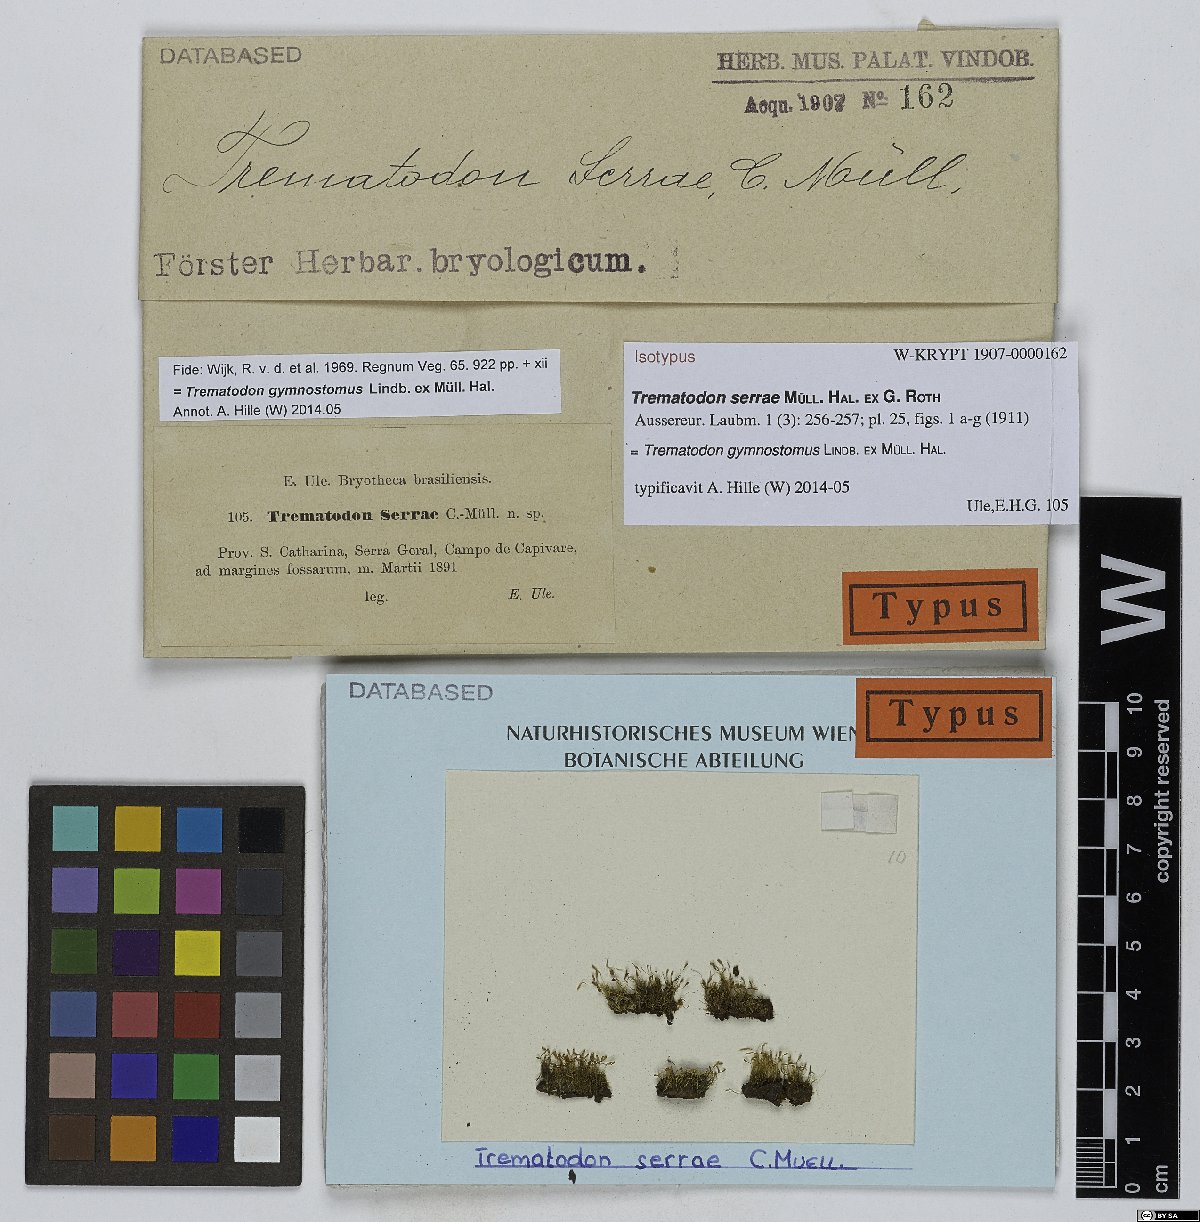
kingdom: Plantae
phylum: Bryophyta
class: Bryopsida
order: Dicranales
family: Bruchiaceae
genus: Trematodon
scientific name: Trematodon gymnostomus
